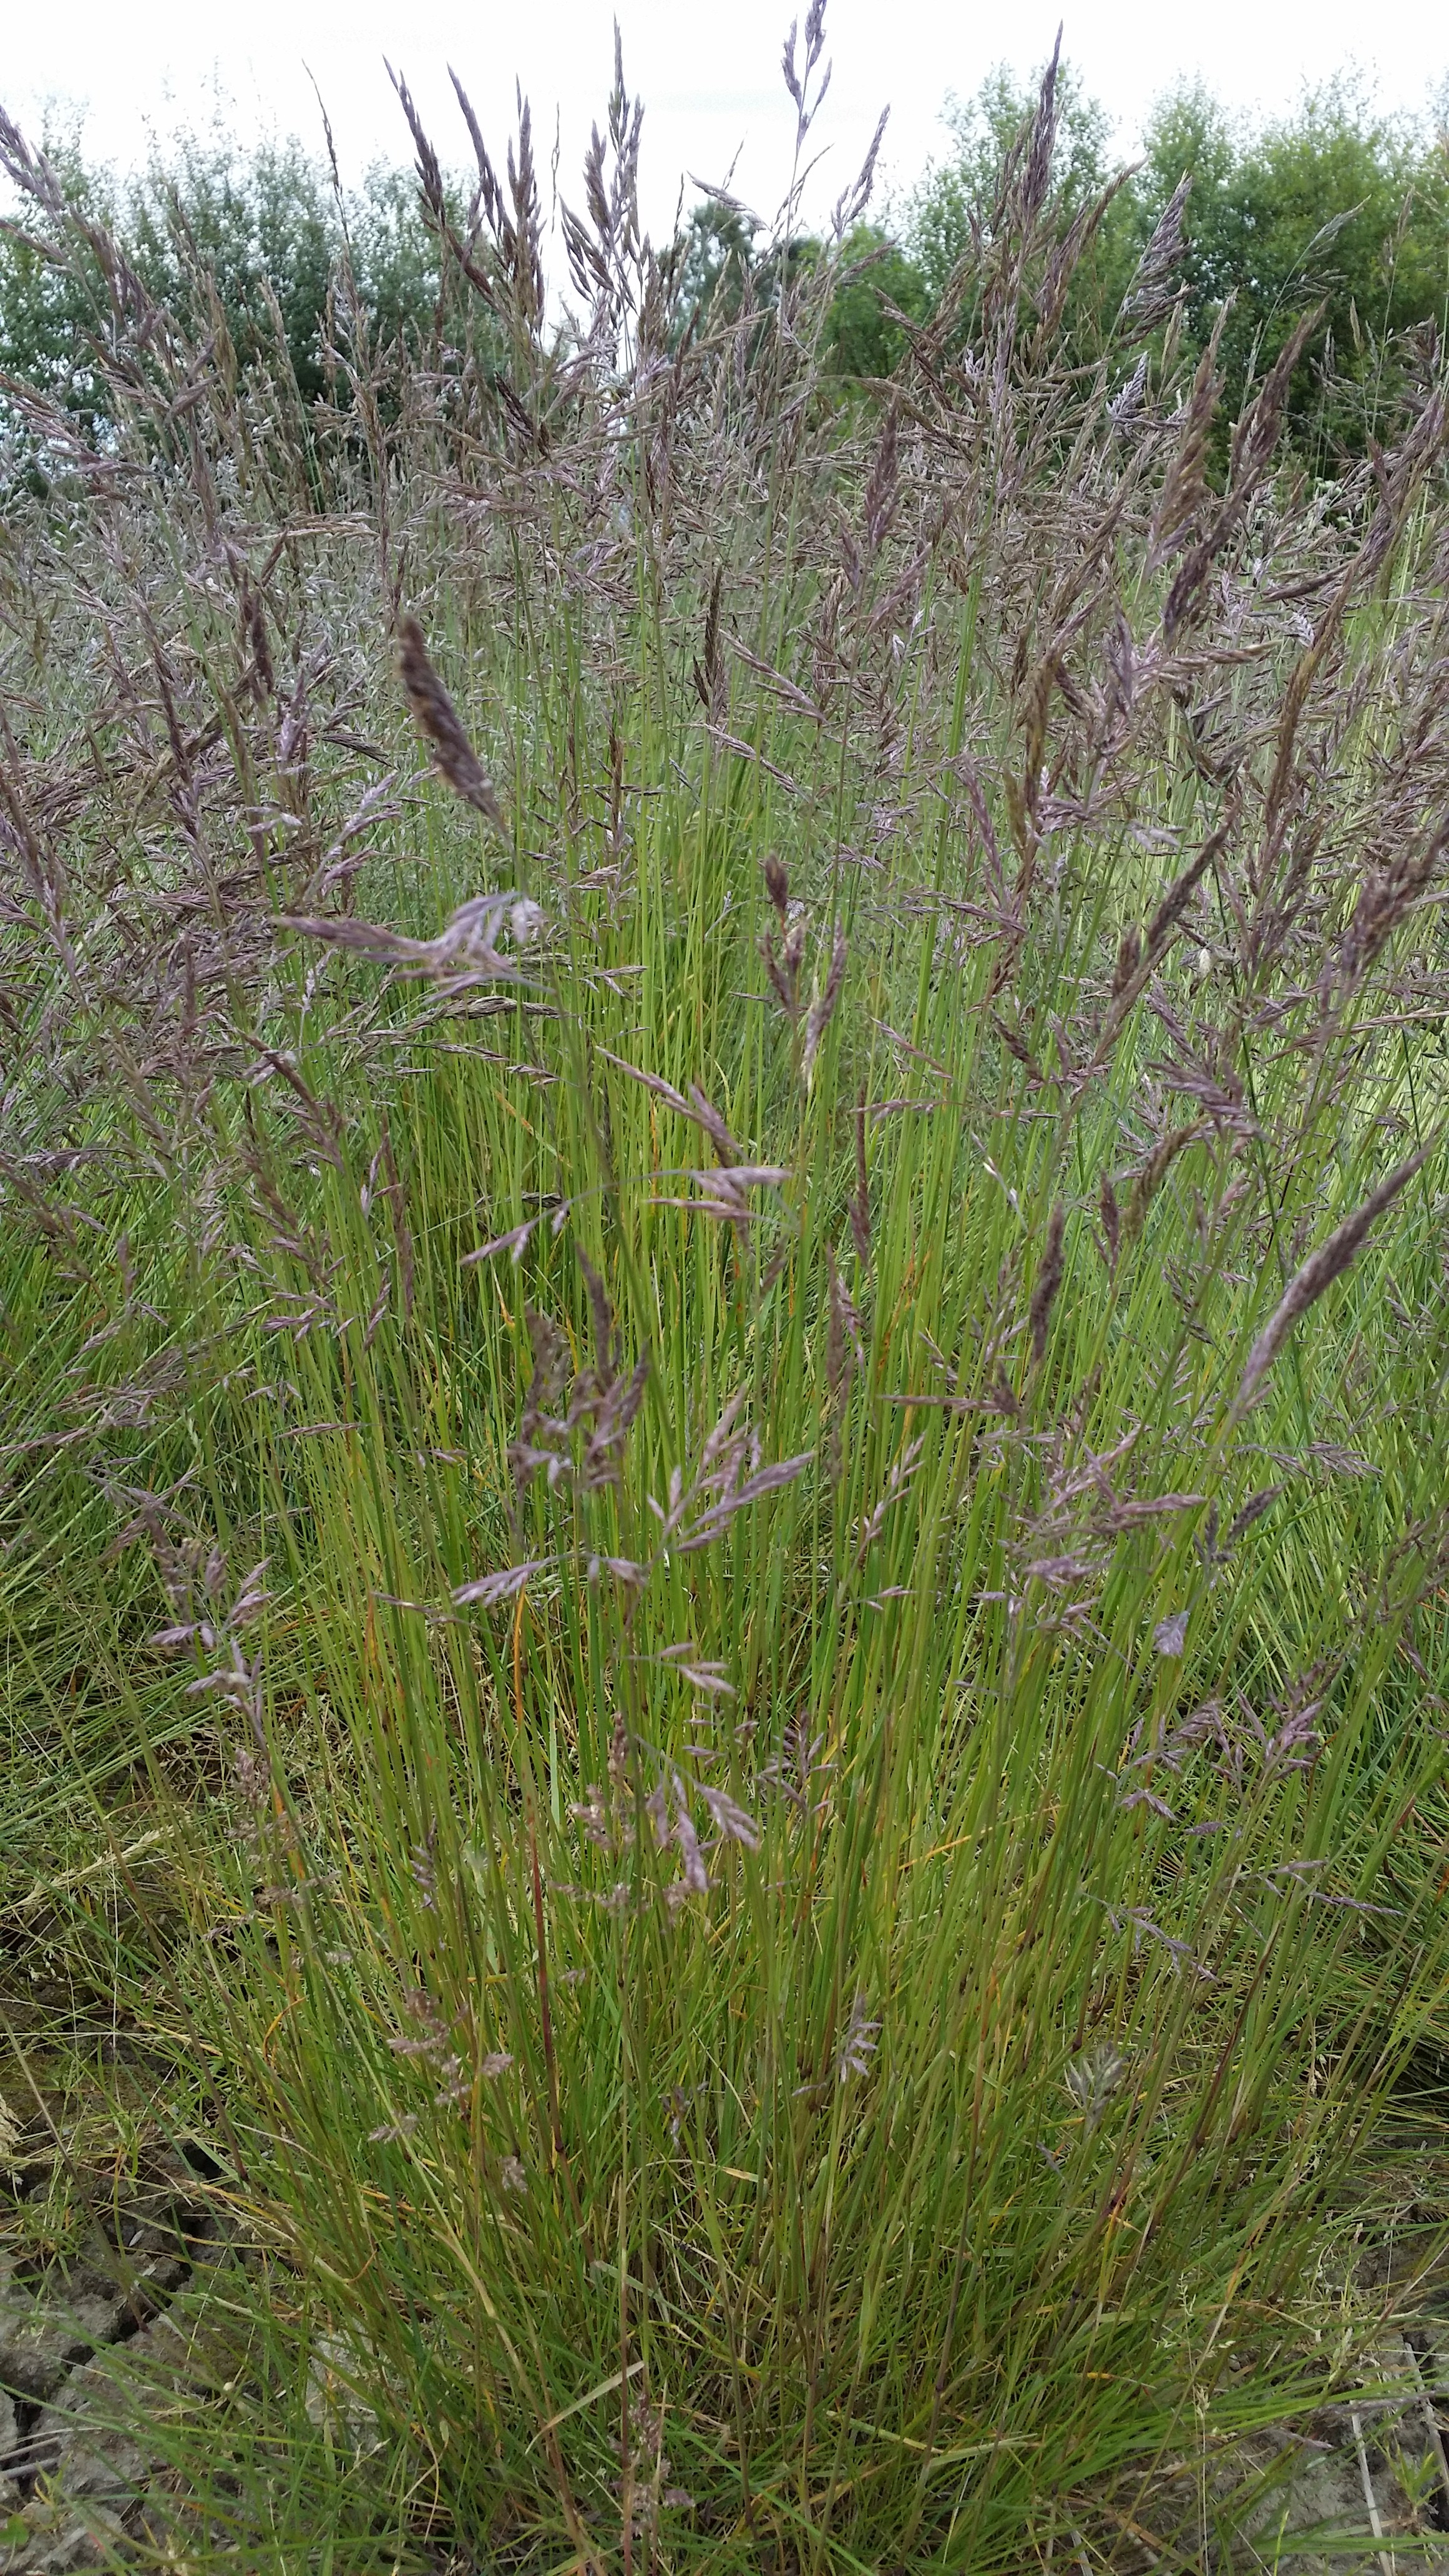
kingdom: Plantae
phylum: Tracheophyta
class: Liliopsida
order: Poales
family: Poaceae
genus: Festuca
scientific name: Festuca rubra
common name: Red fescue
